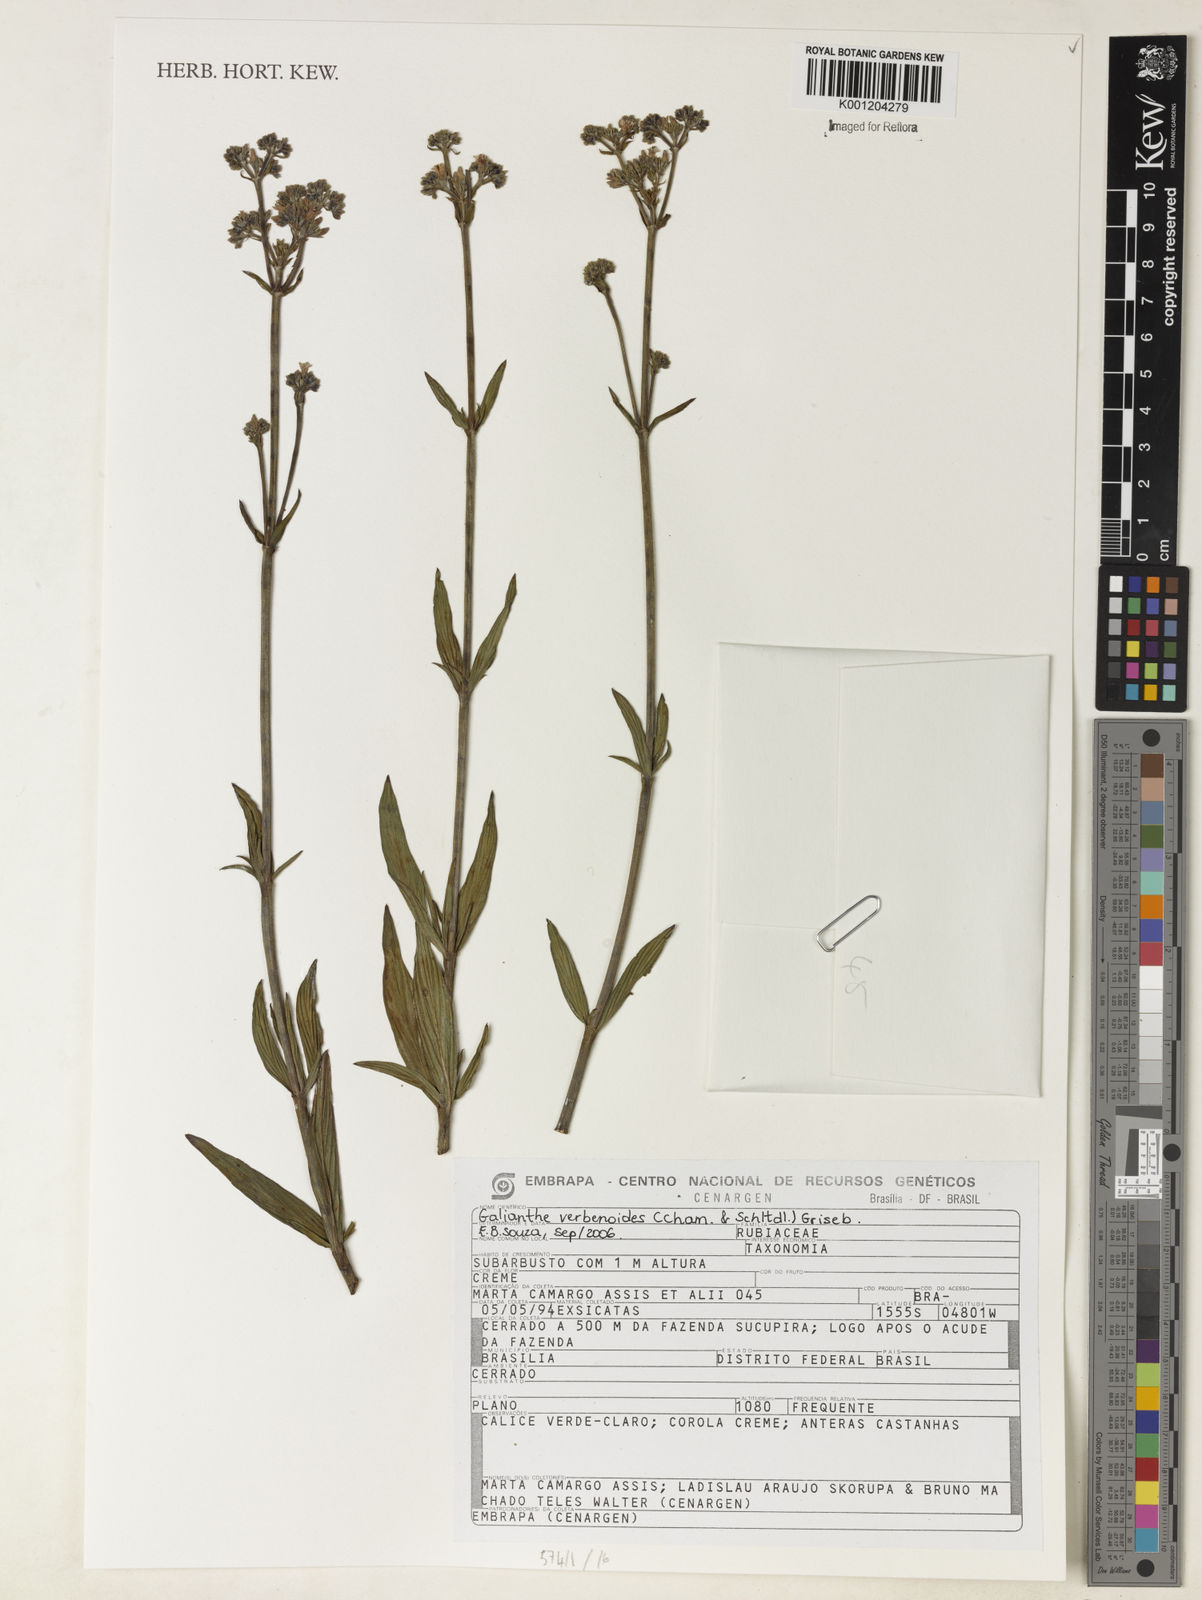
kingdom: Plantae
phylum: Tracheophyta
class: Magnoliopsida
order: Gentianales
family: Rubiaceae
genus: Galianthe
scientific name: Galianthe verbenoides
